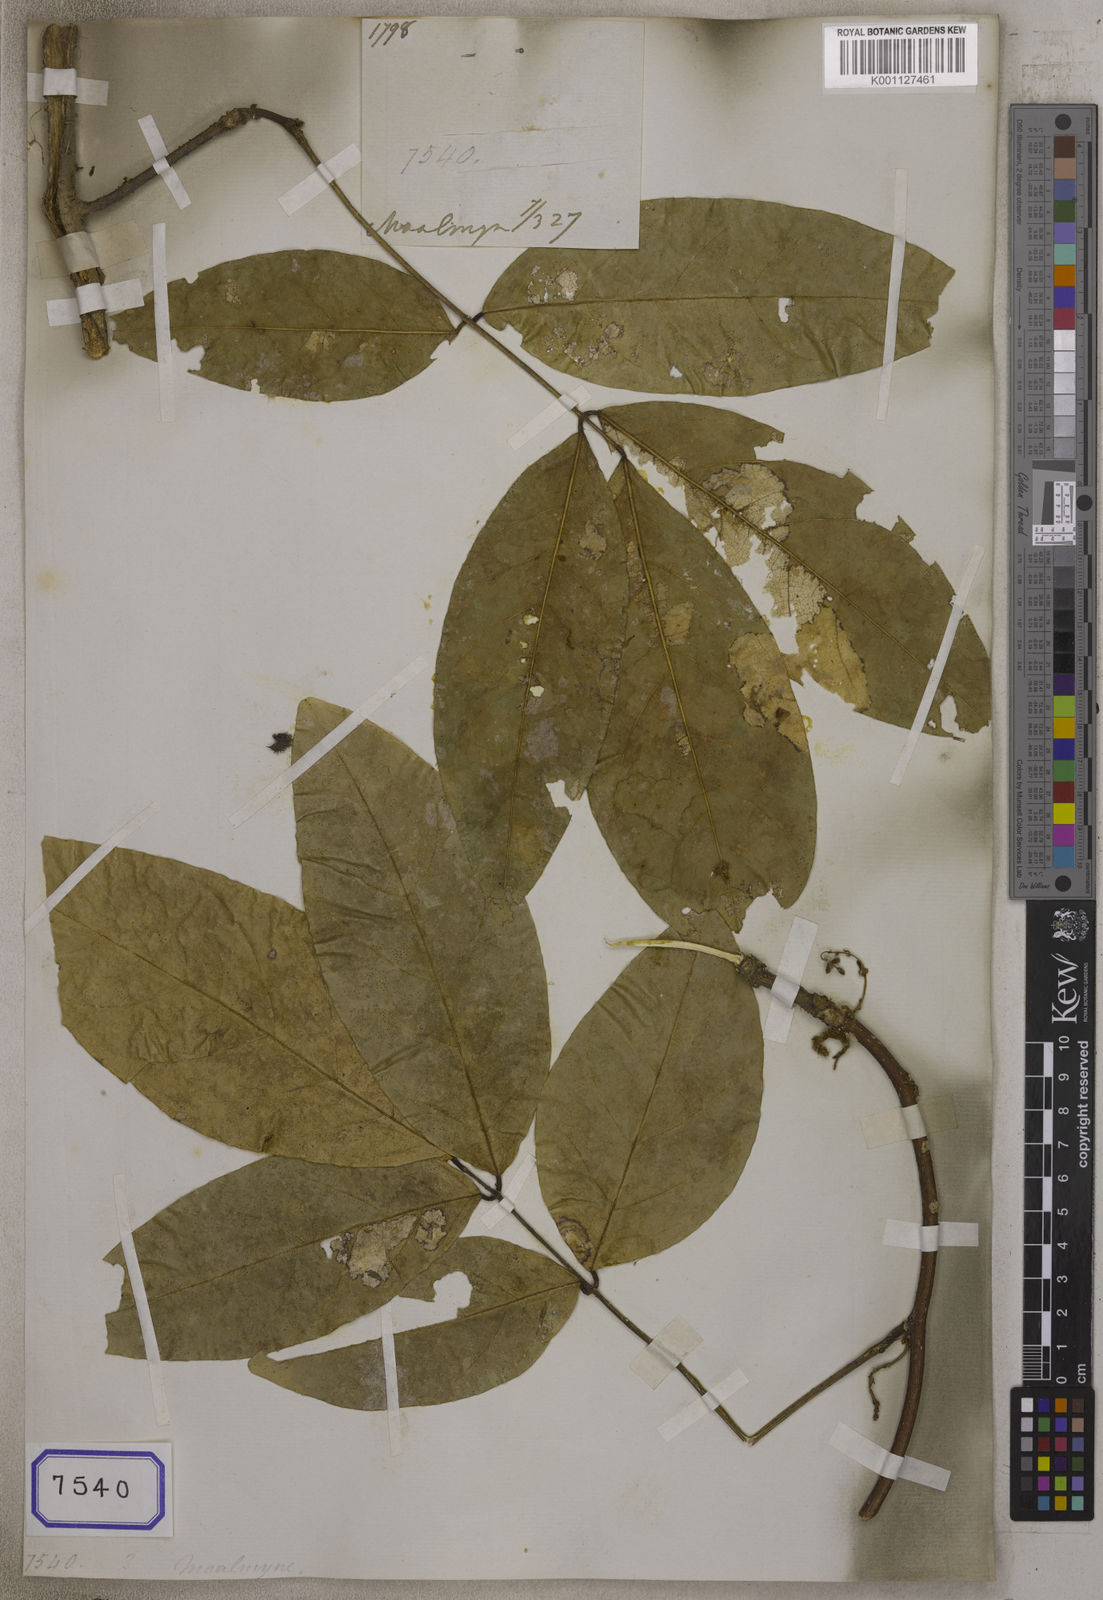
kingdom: Plantae
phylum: Tracheophyta
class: Magnoliopsida
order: Fabales
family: Fabaceae
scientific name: Fabaceae
